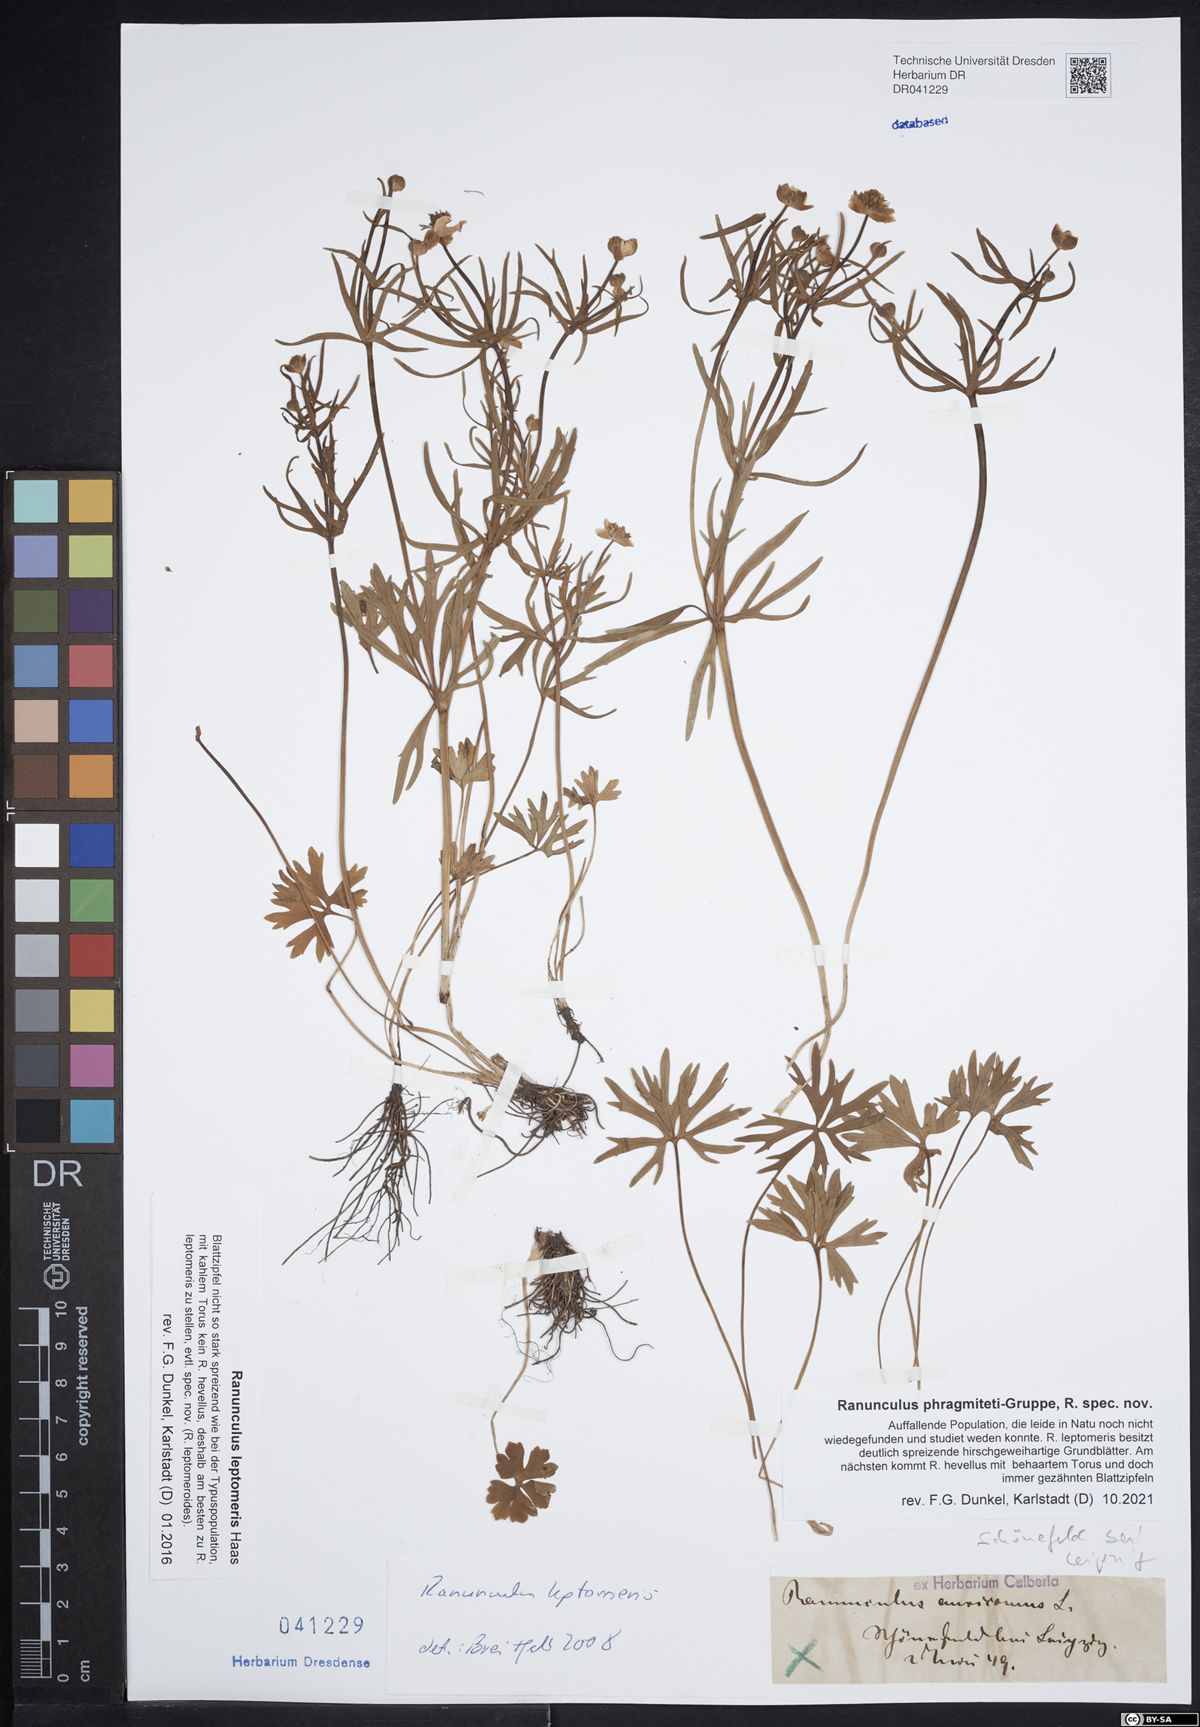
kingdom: Plantae
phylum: Tracheophyta
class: Magnoliopsida
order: Ranunculales
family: Ranunculaceae
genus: Ranunculus
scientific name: Ranunculus leptomeris
